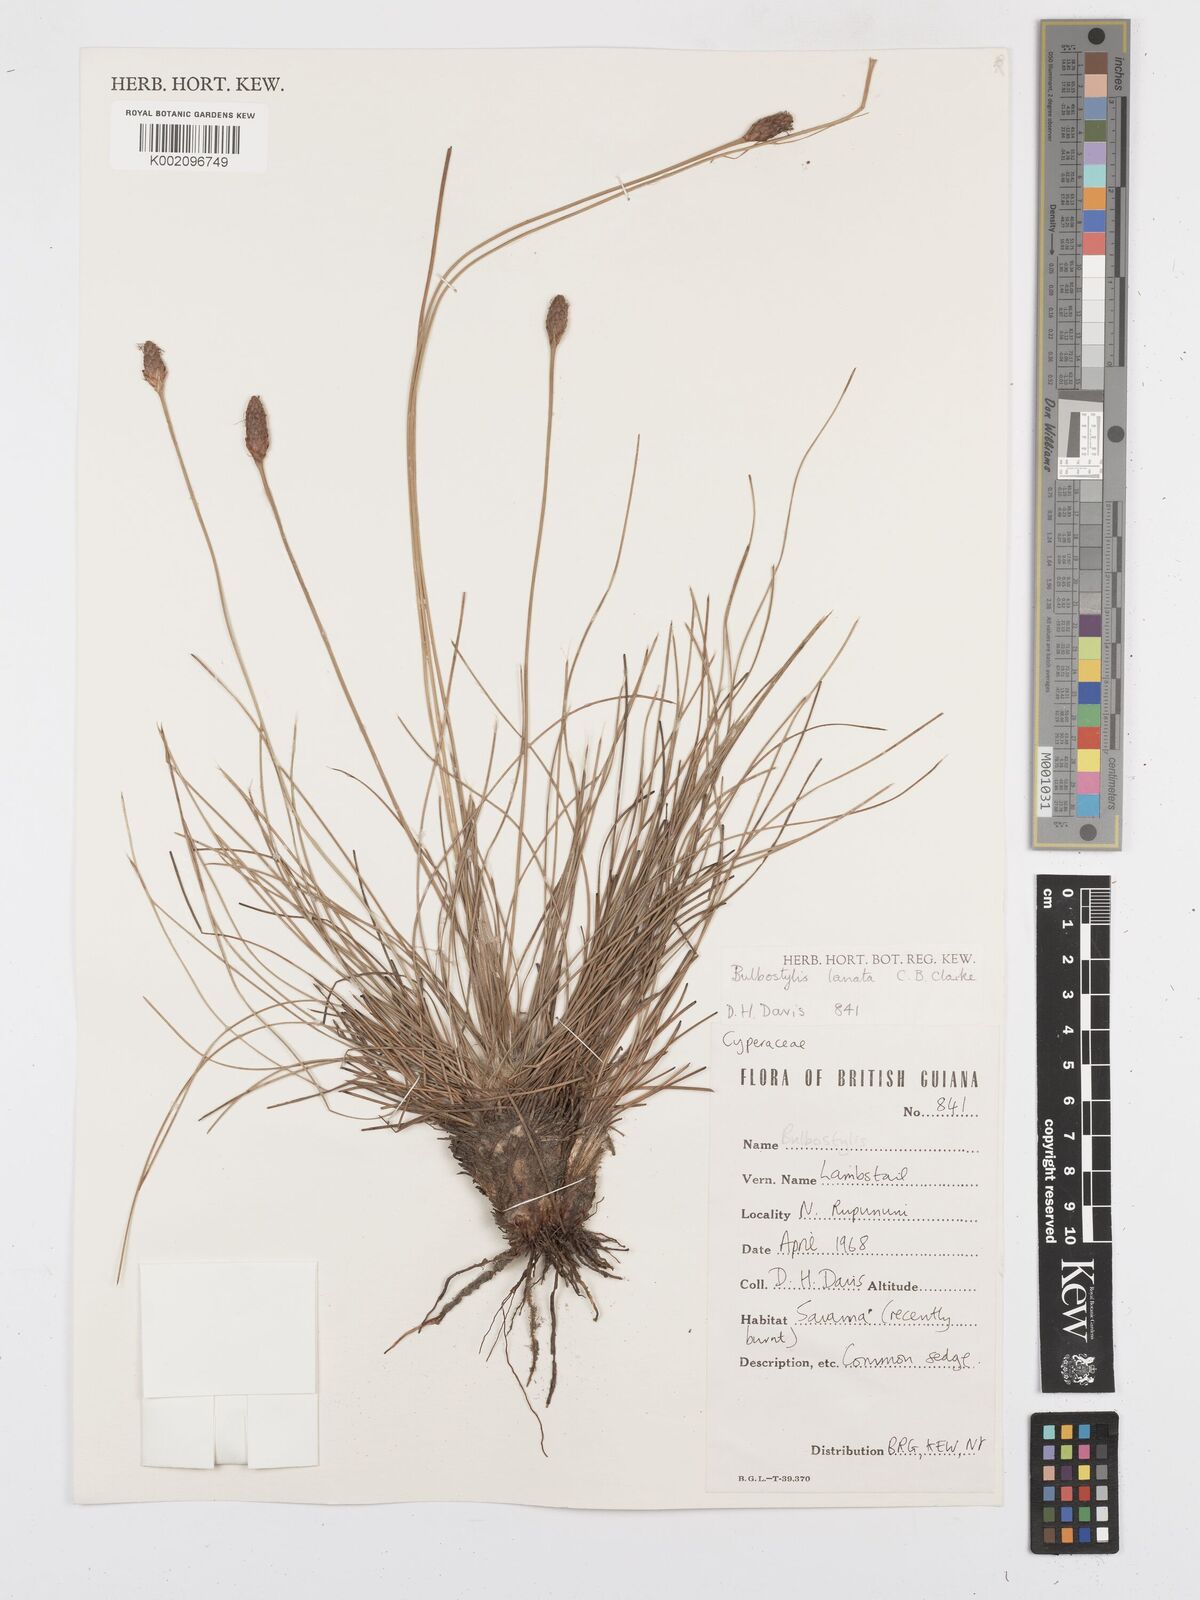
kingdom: Plantae
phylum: Tracheophyta
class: Liliopsida
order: Poales
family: Cyperaceae
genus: Bulbostylis
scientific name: Bulbostylis
